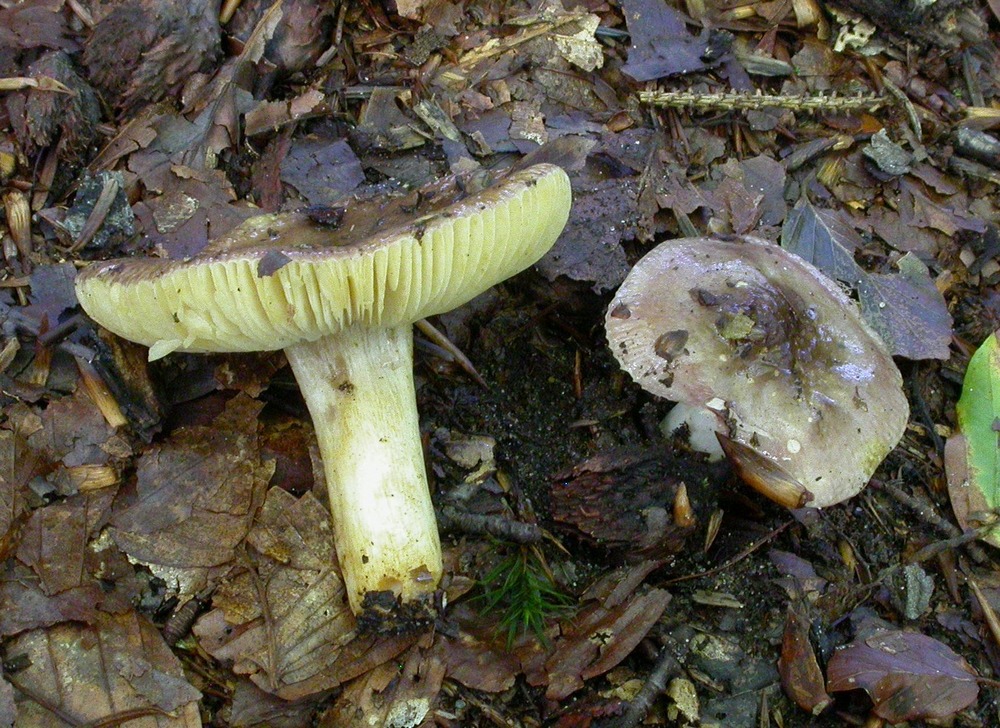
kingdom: Fungi
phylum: Basidiomycota
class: Agaricomycetes
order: Russulales
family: Russulaceae
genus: Russula
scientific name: Russula puellaris
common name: gulstokket skørhat
